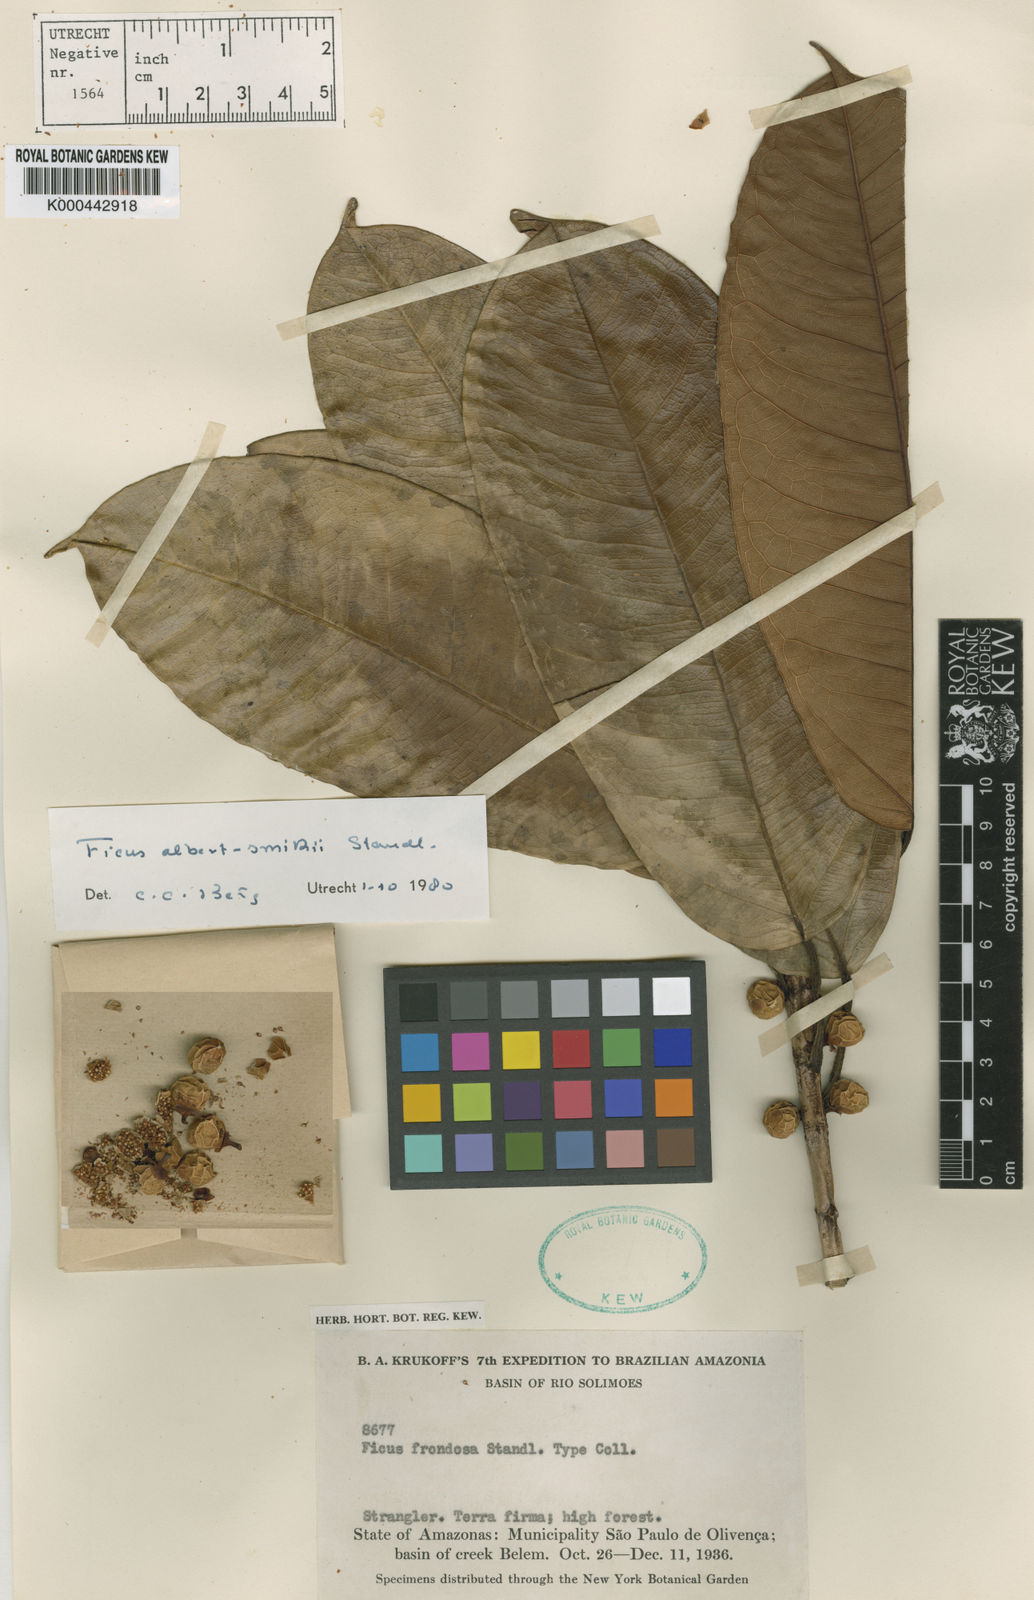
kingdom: Plantae
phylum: Tracheophyta
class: Magnoliopsida
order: Rosales
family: Moraceae
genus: Ficus
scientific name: Ficus albert-smithii
